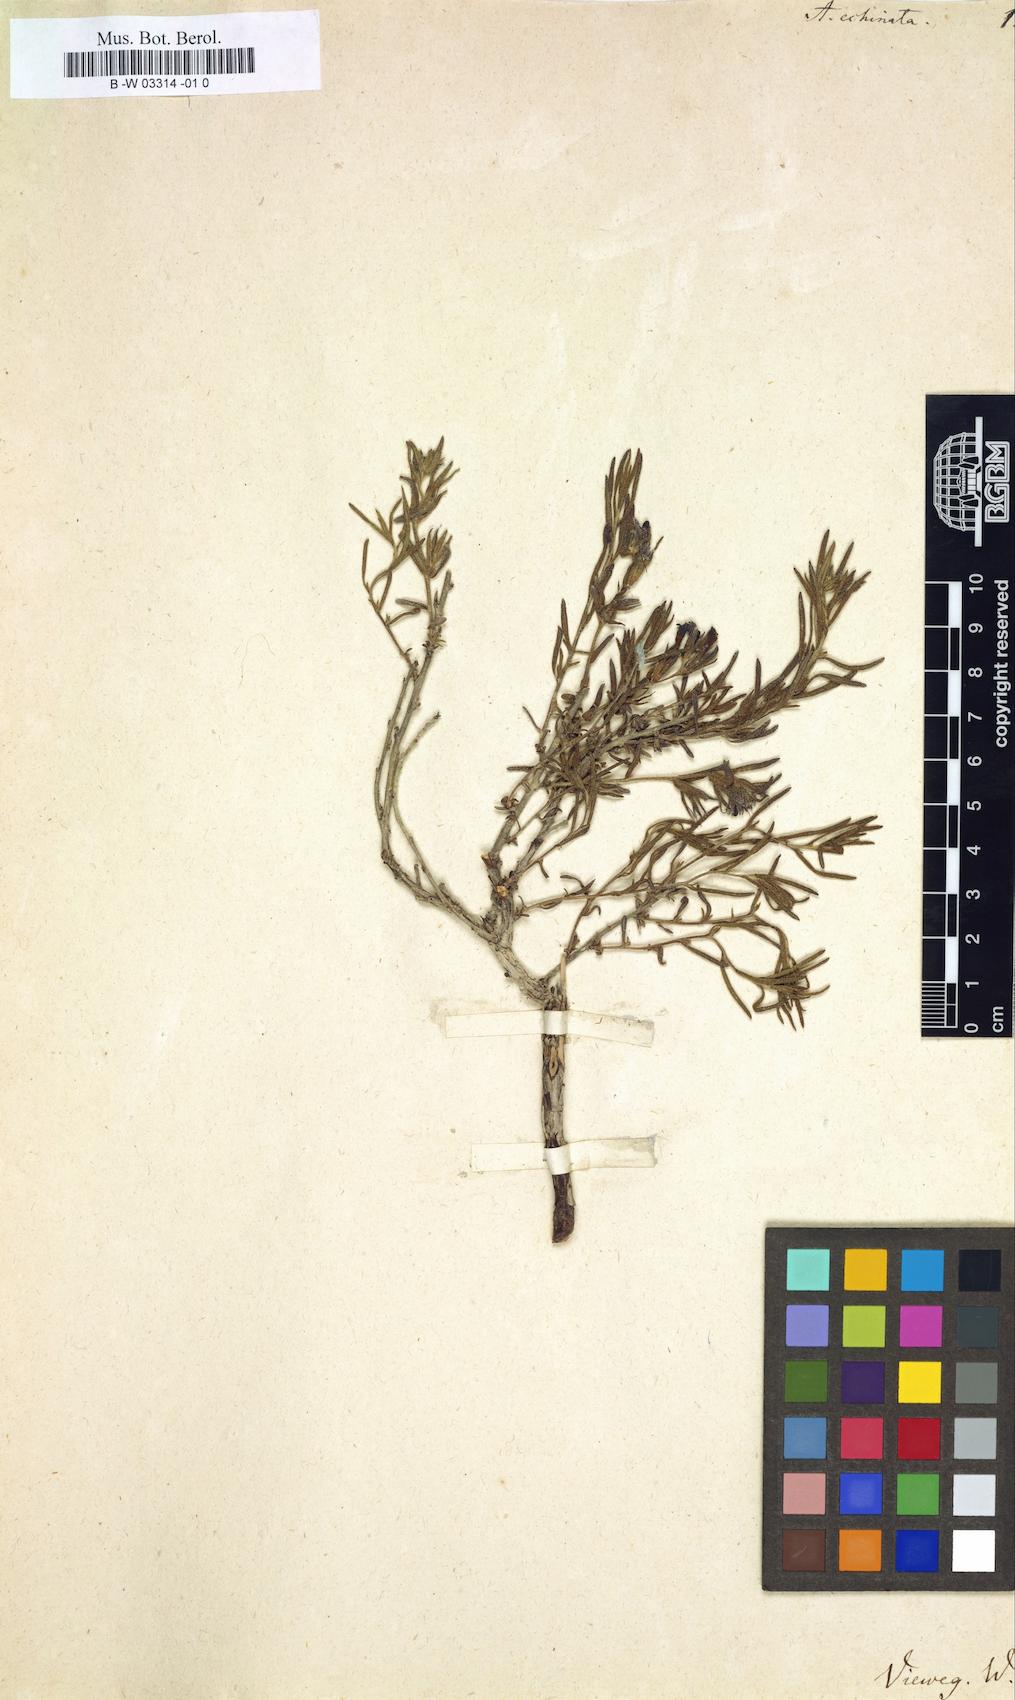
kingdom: Plantae
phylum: Tracheophyta
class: Magnoliopsida
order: Boraginales
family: Boraginaceae
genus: Anchusa
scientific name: Anchusa strigosa
